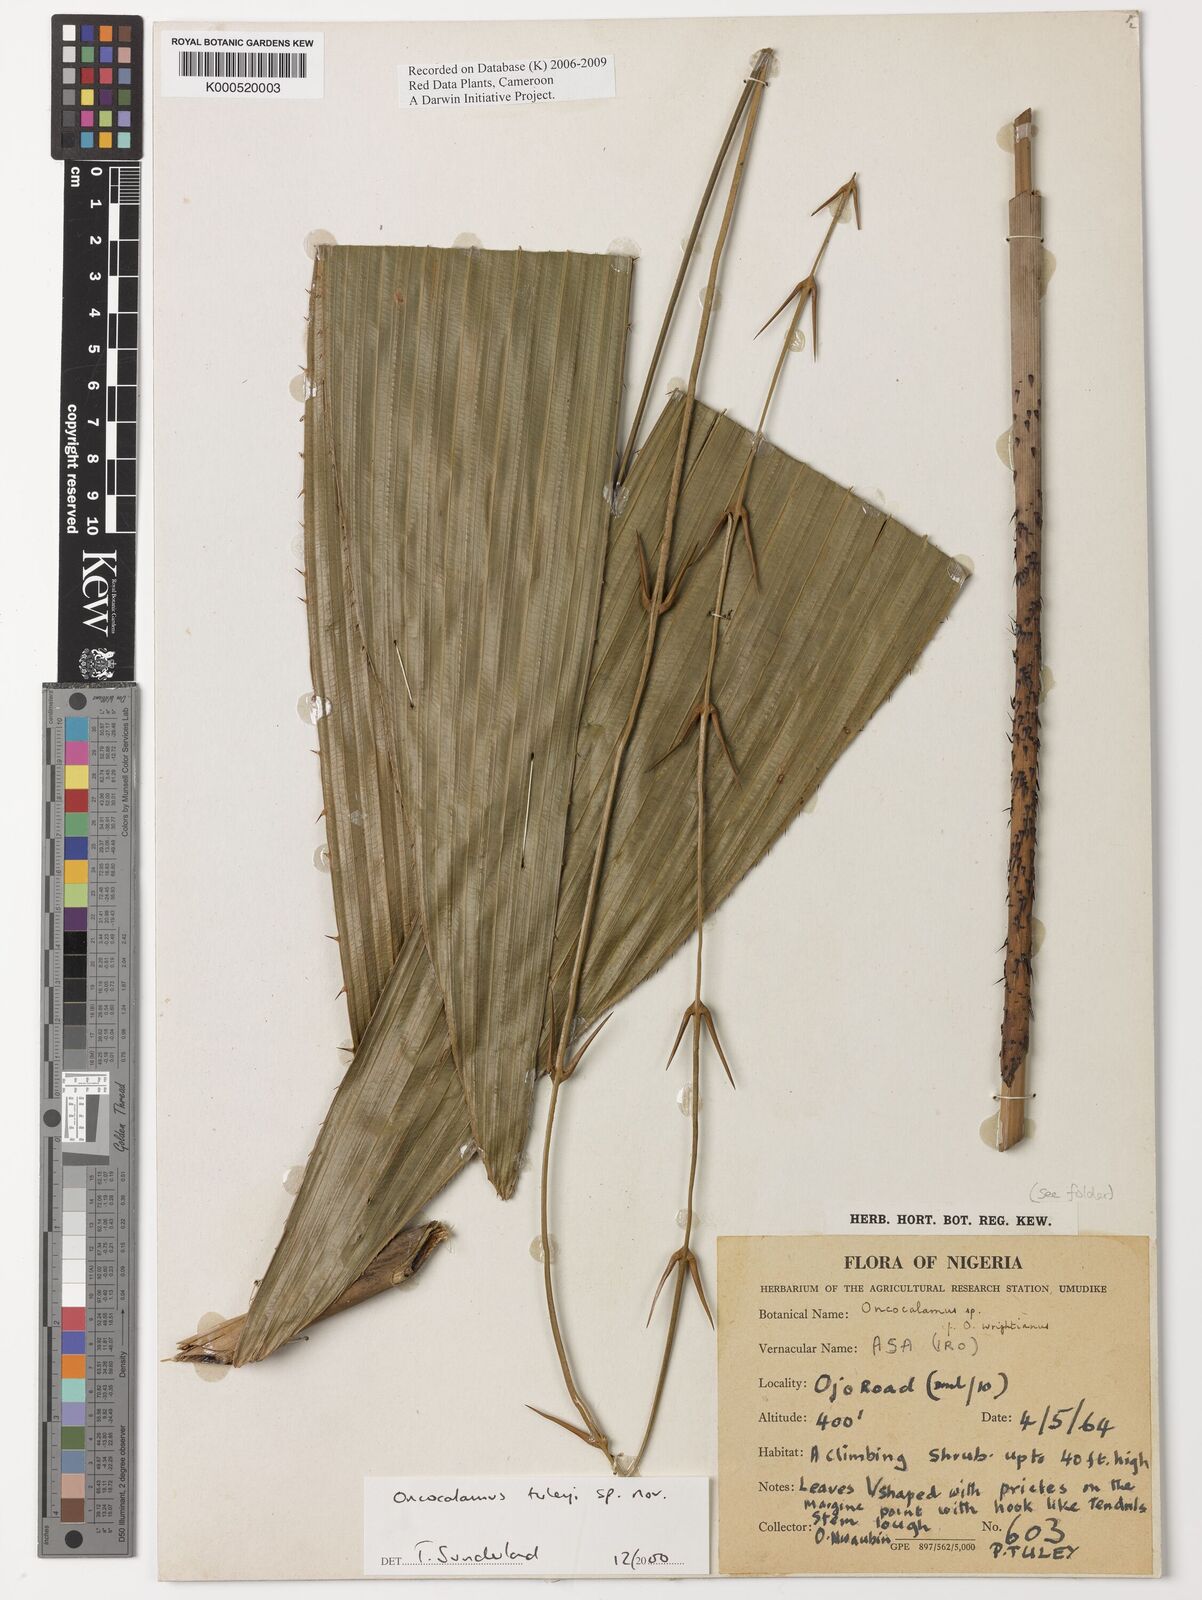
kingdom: Plantae
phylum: Tracheophyta
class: Liliopsida
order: Arecales
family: Arecaceae
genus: Oncocalamus
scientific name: Oncocalamus tuleyi
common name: Rattan
